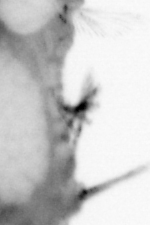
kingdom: Animalia
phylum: Annelida
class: Polychaeta
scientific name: Polychaeta
